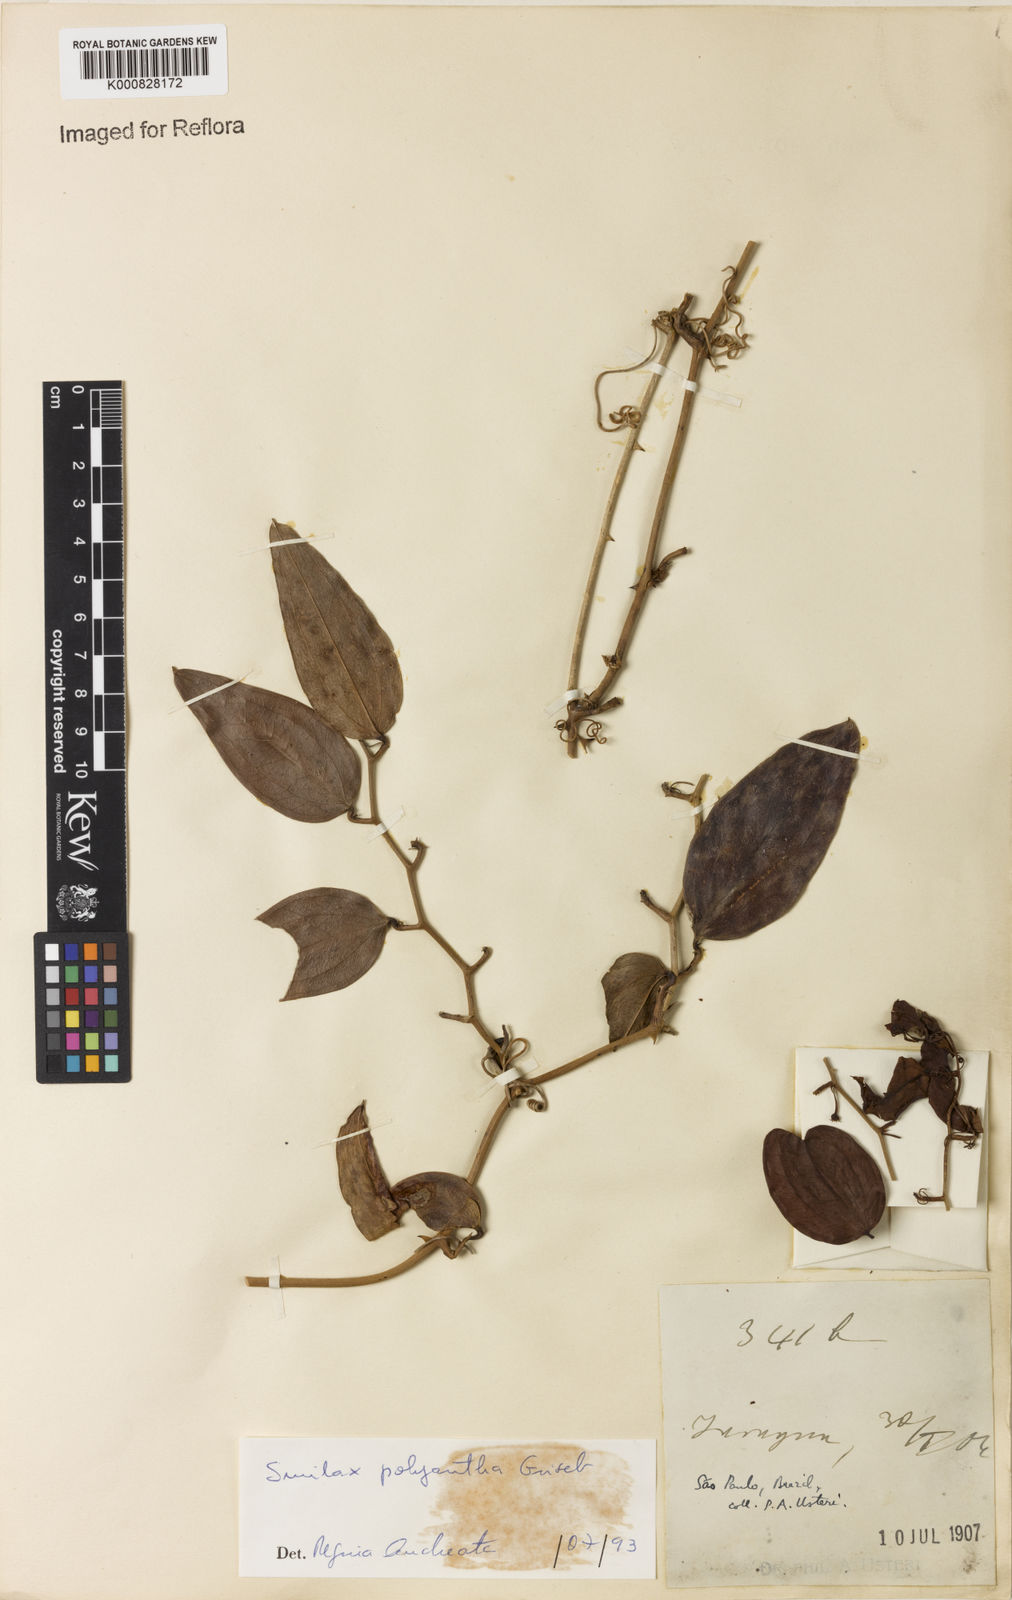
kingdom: Plantae
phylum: Tracheophyta
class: Liliopsida
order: Liliales
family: Smilacaceae
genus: Smilax
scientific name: Smilax polyantha
